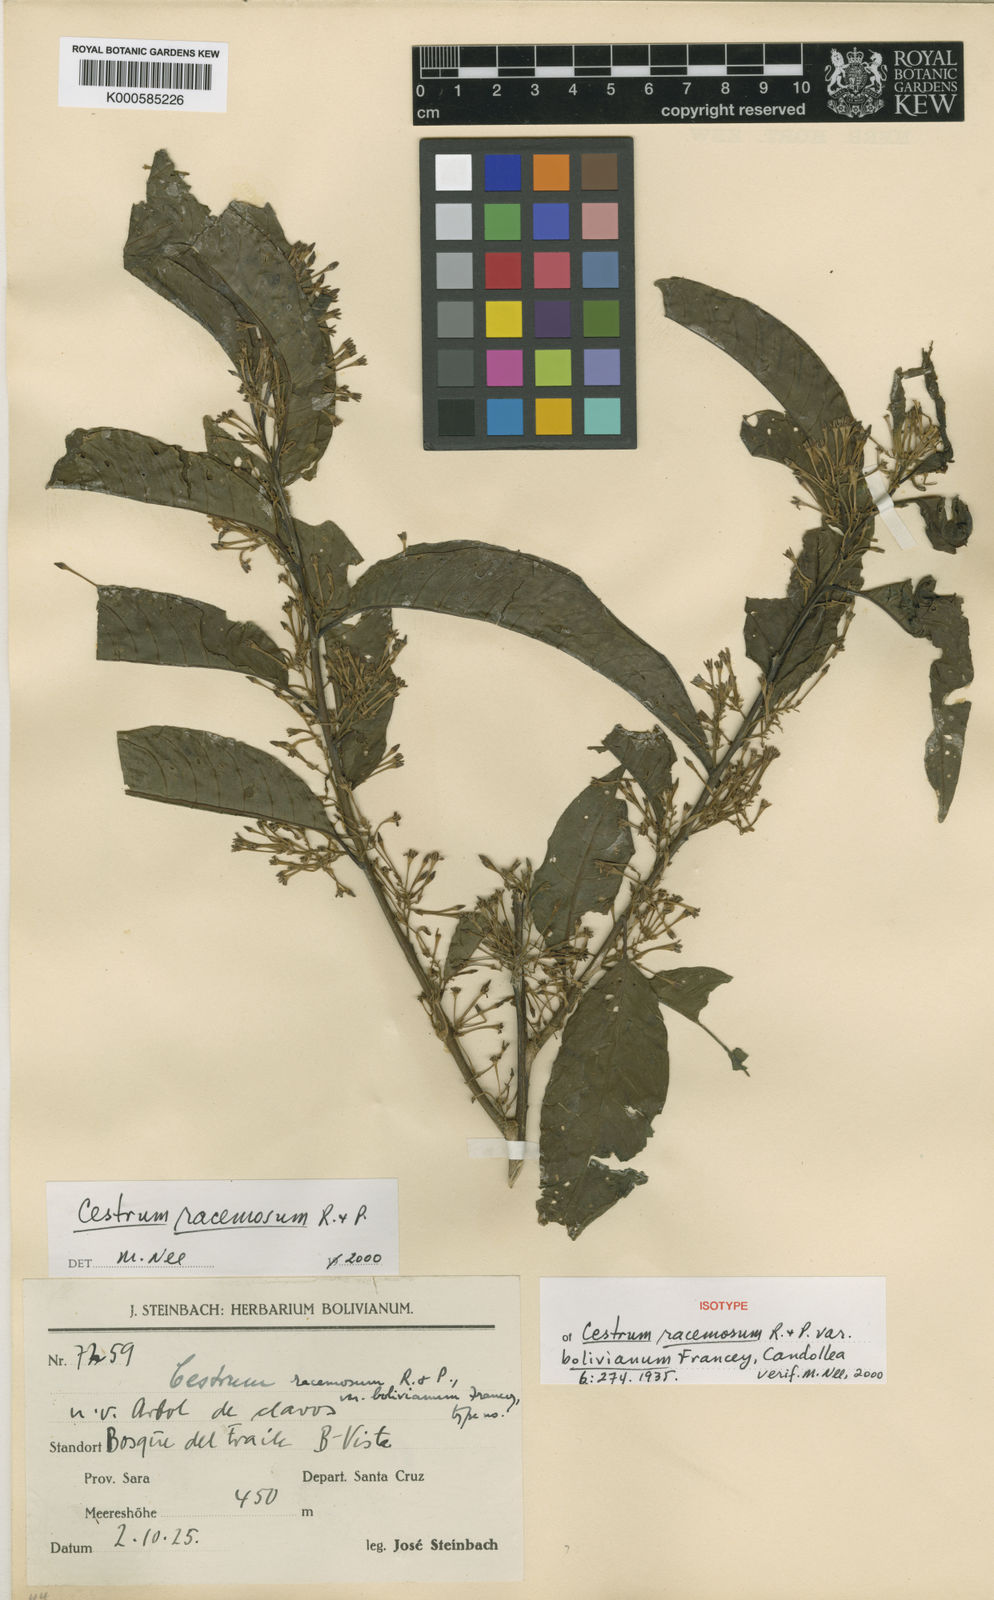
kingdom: Plantae
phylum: Tracheophyta
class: Magnoliopsida
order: Solanales
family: Solanaceae
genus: Cestrum
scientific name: Cestrum racemosum
